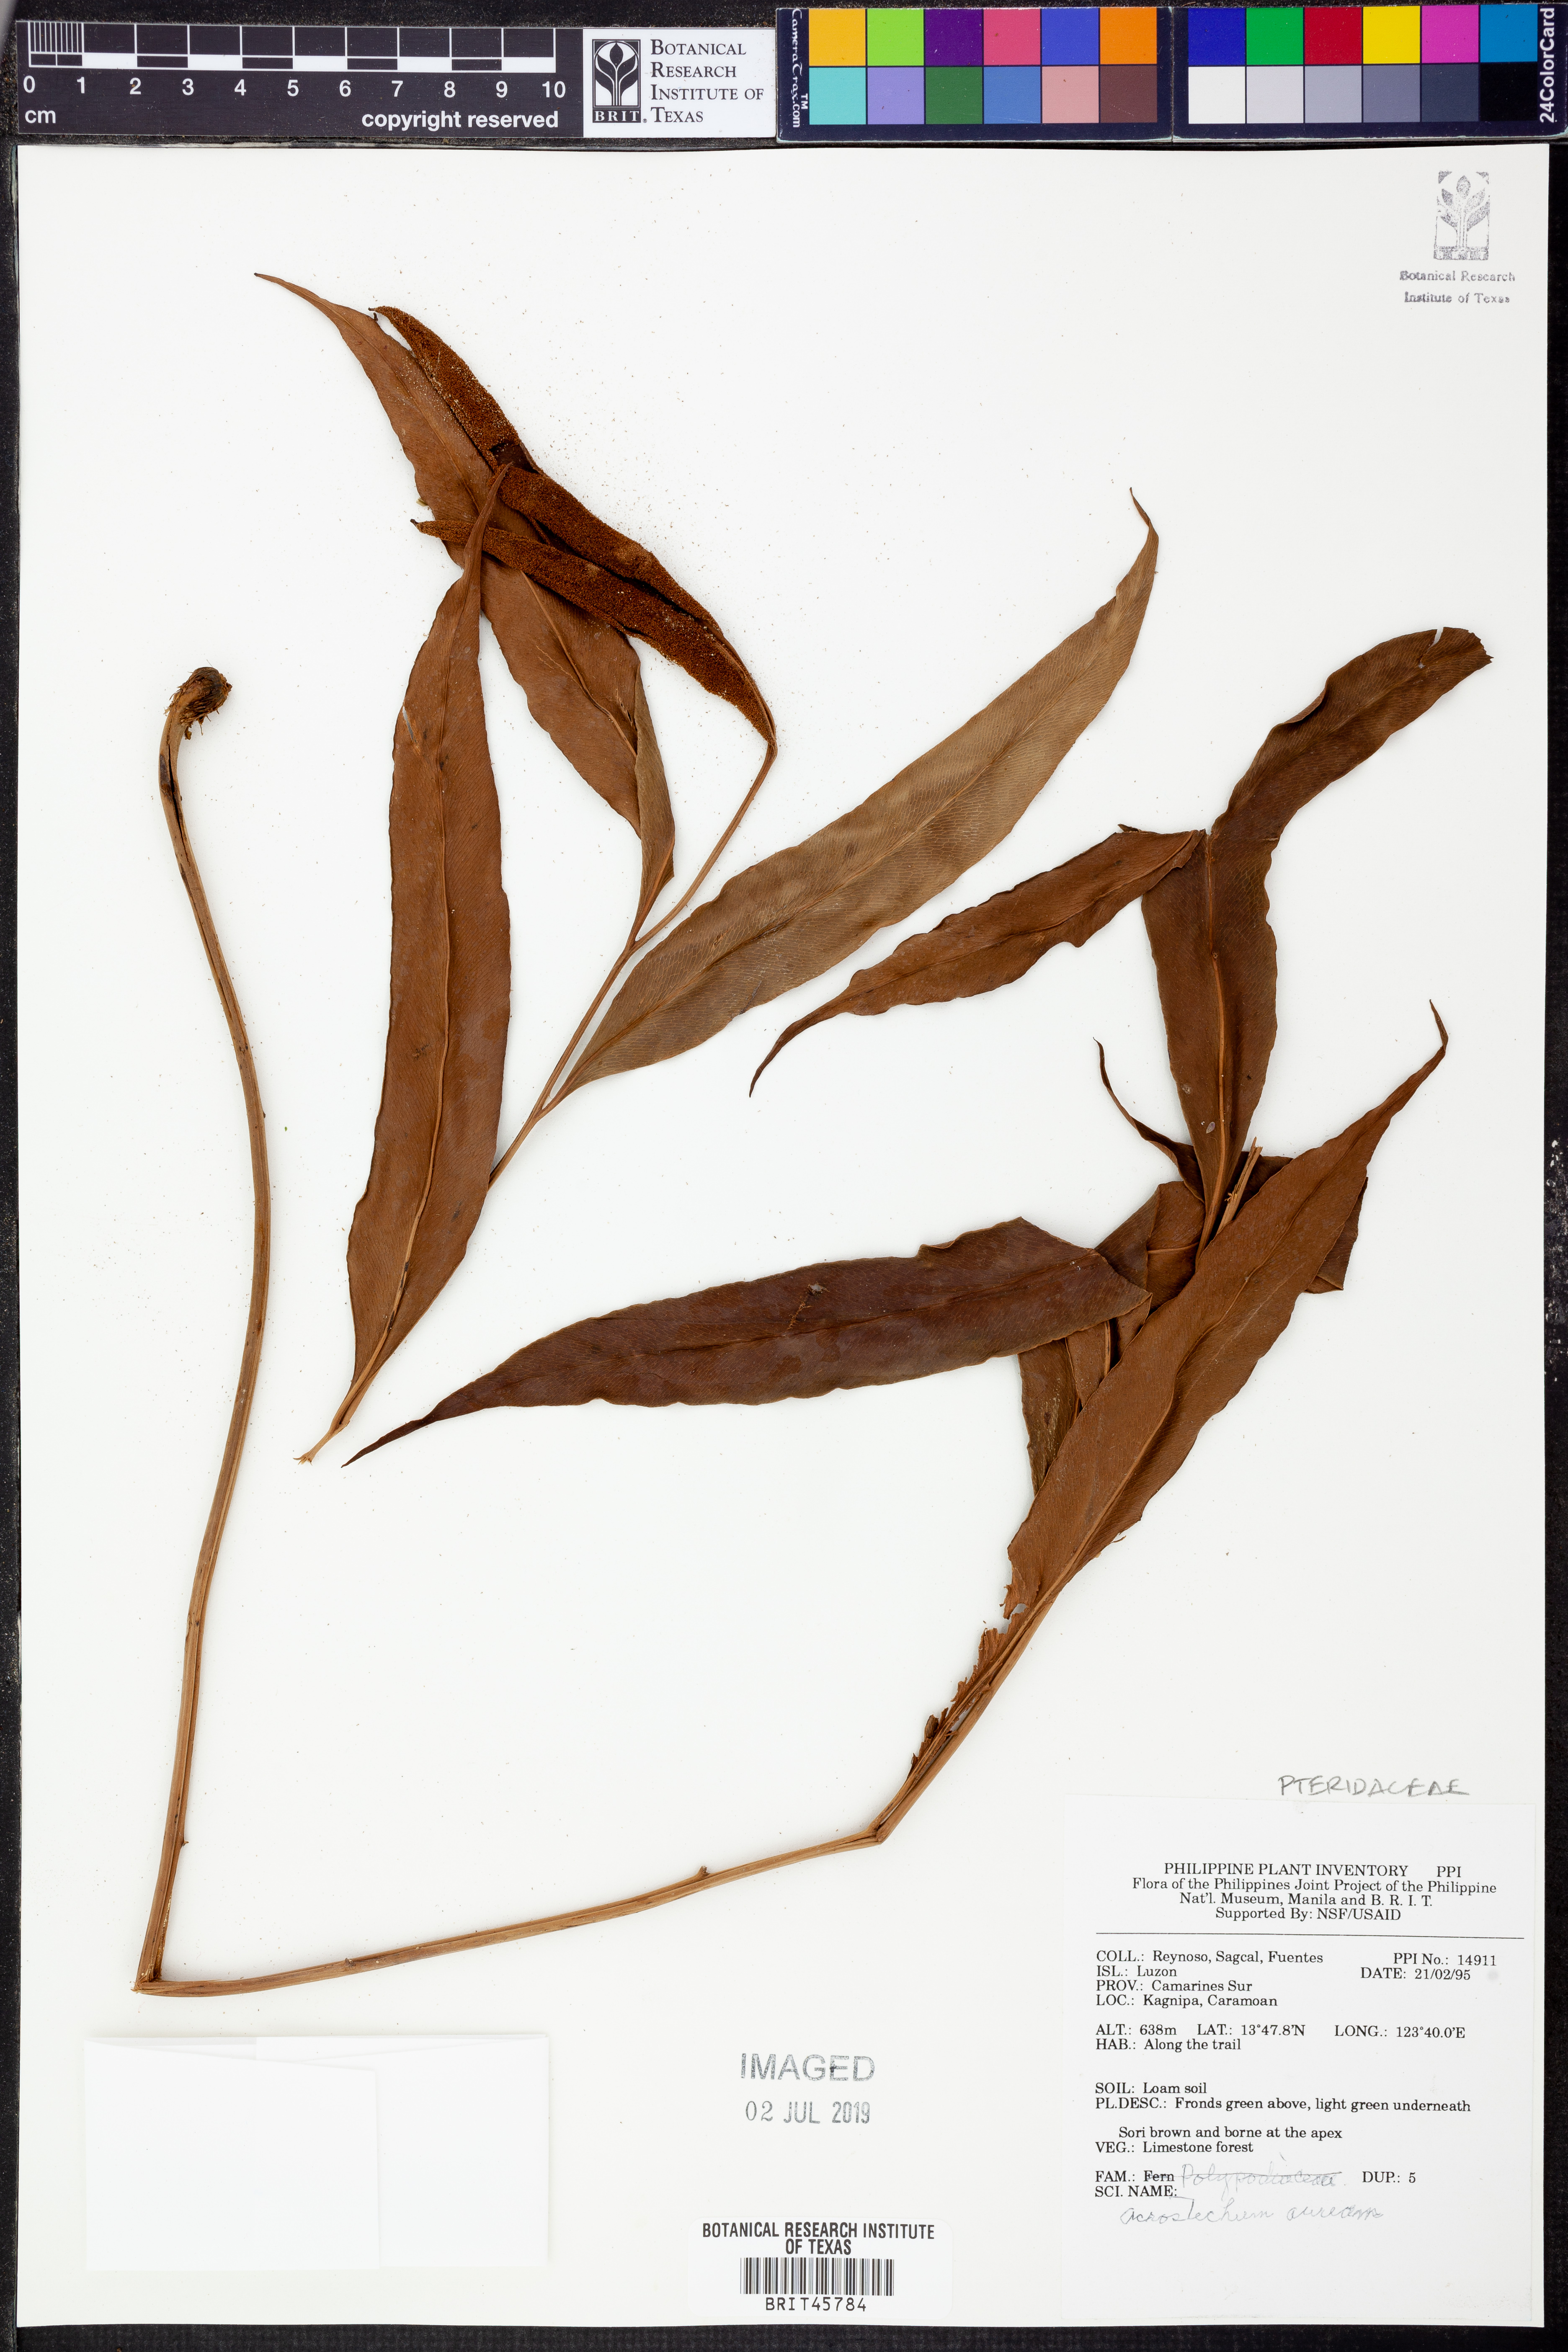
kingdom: Plantae
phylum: Tracheophyta
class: Polypodiopsida
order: Polypodiales
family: Pteridaceae
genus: Acrostichum
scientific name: Acrostichum aureum
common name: Leather fern
